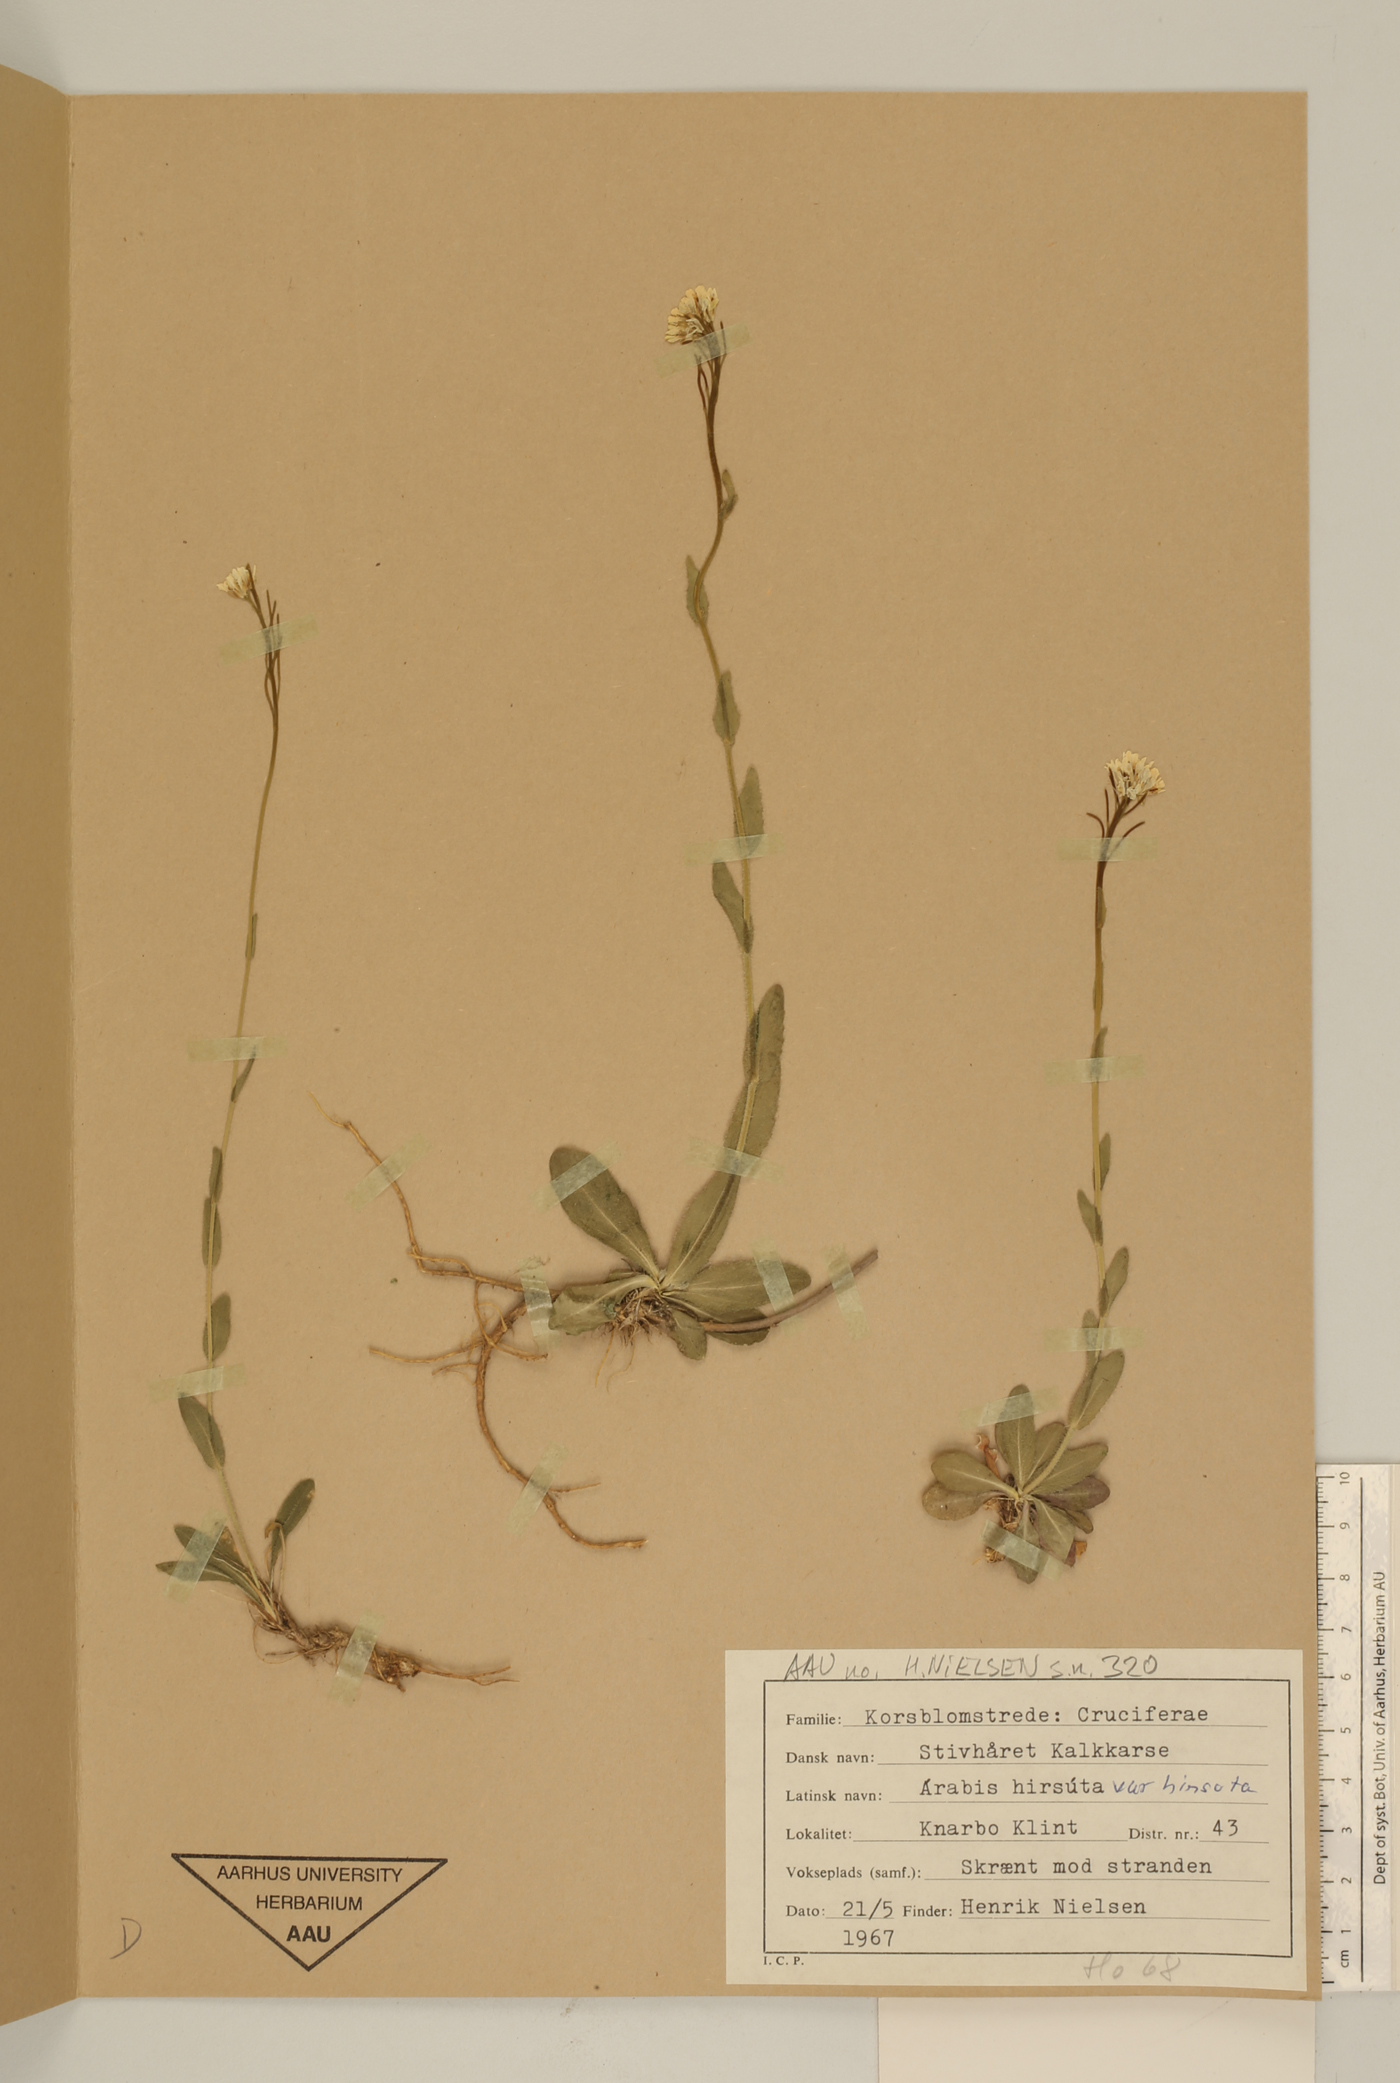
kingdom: Plantae
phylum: Tracheophyta
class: Magnoliopsida
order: Brassicales
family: Brassicaceae
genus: Arabis
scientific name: Arabis hirsuta
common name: Hairy rock-cress
